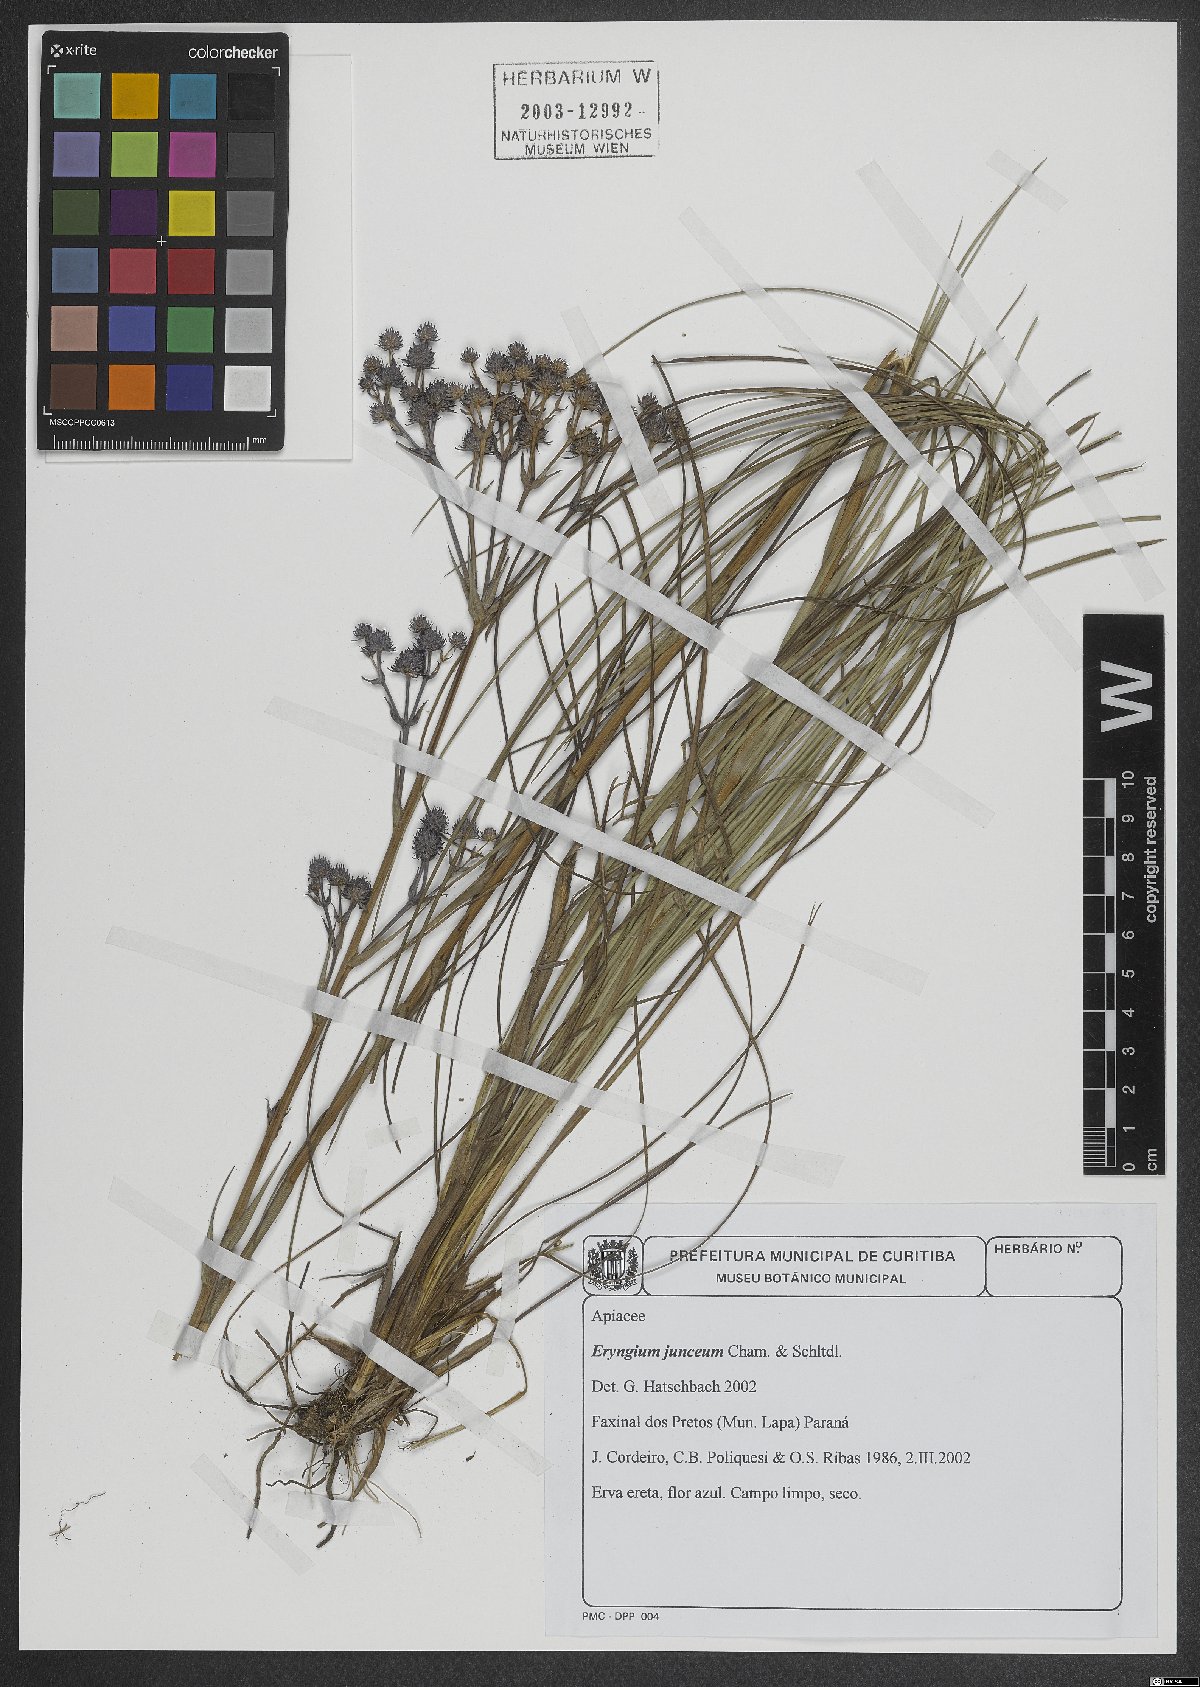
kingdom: Plantae
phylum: Tracheophyta
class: Magnoliopsida
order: Apiales
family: Apiaceae
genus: Eryngium
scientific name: Eryngium junceum
